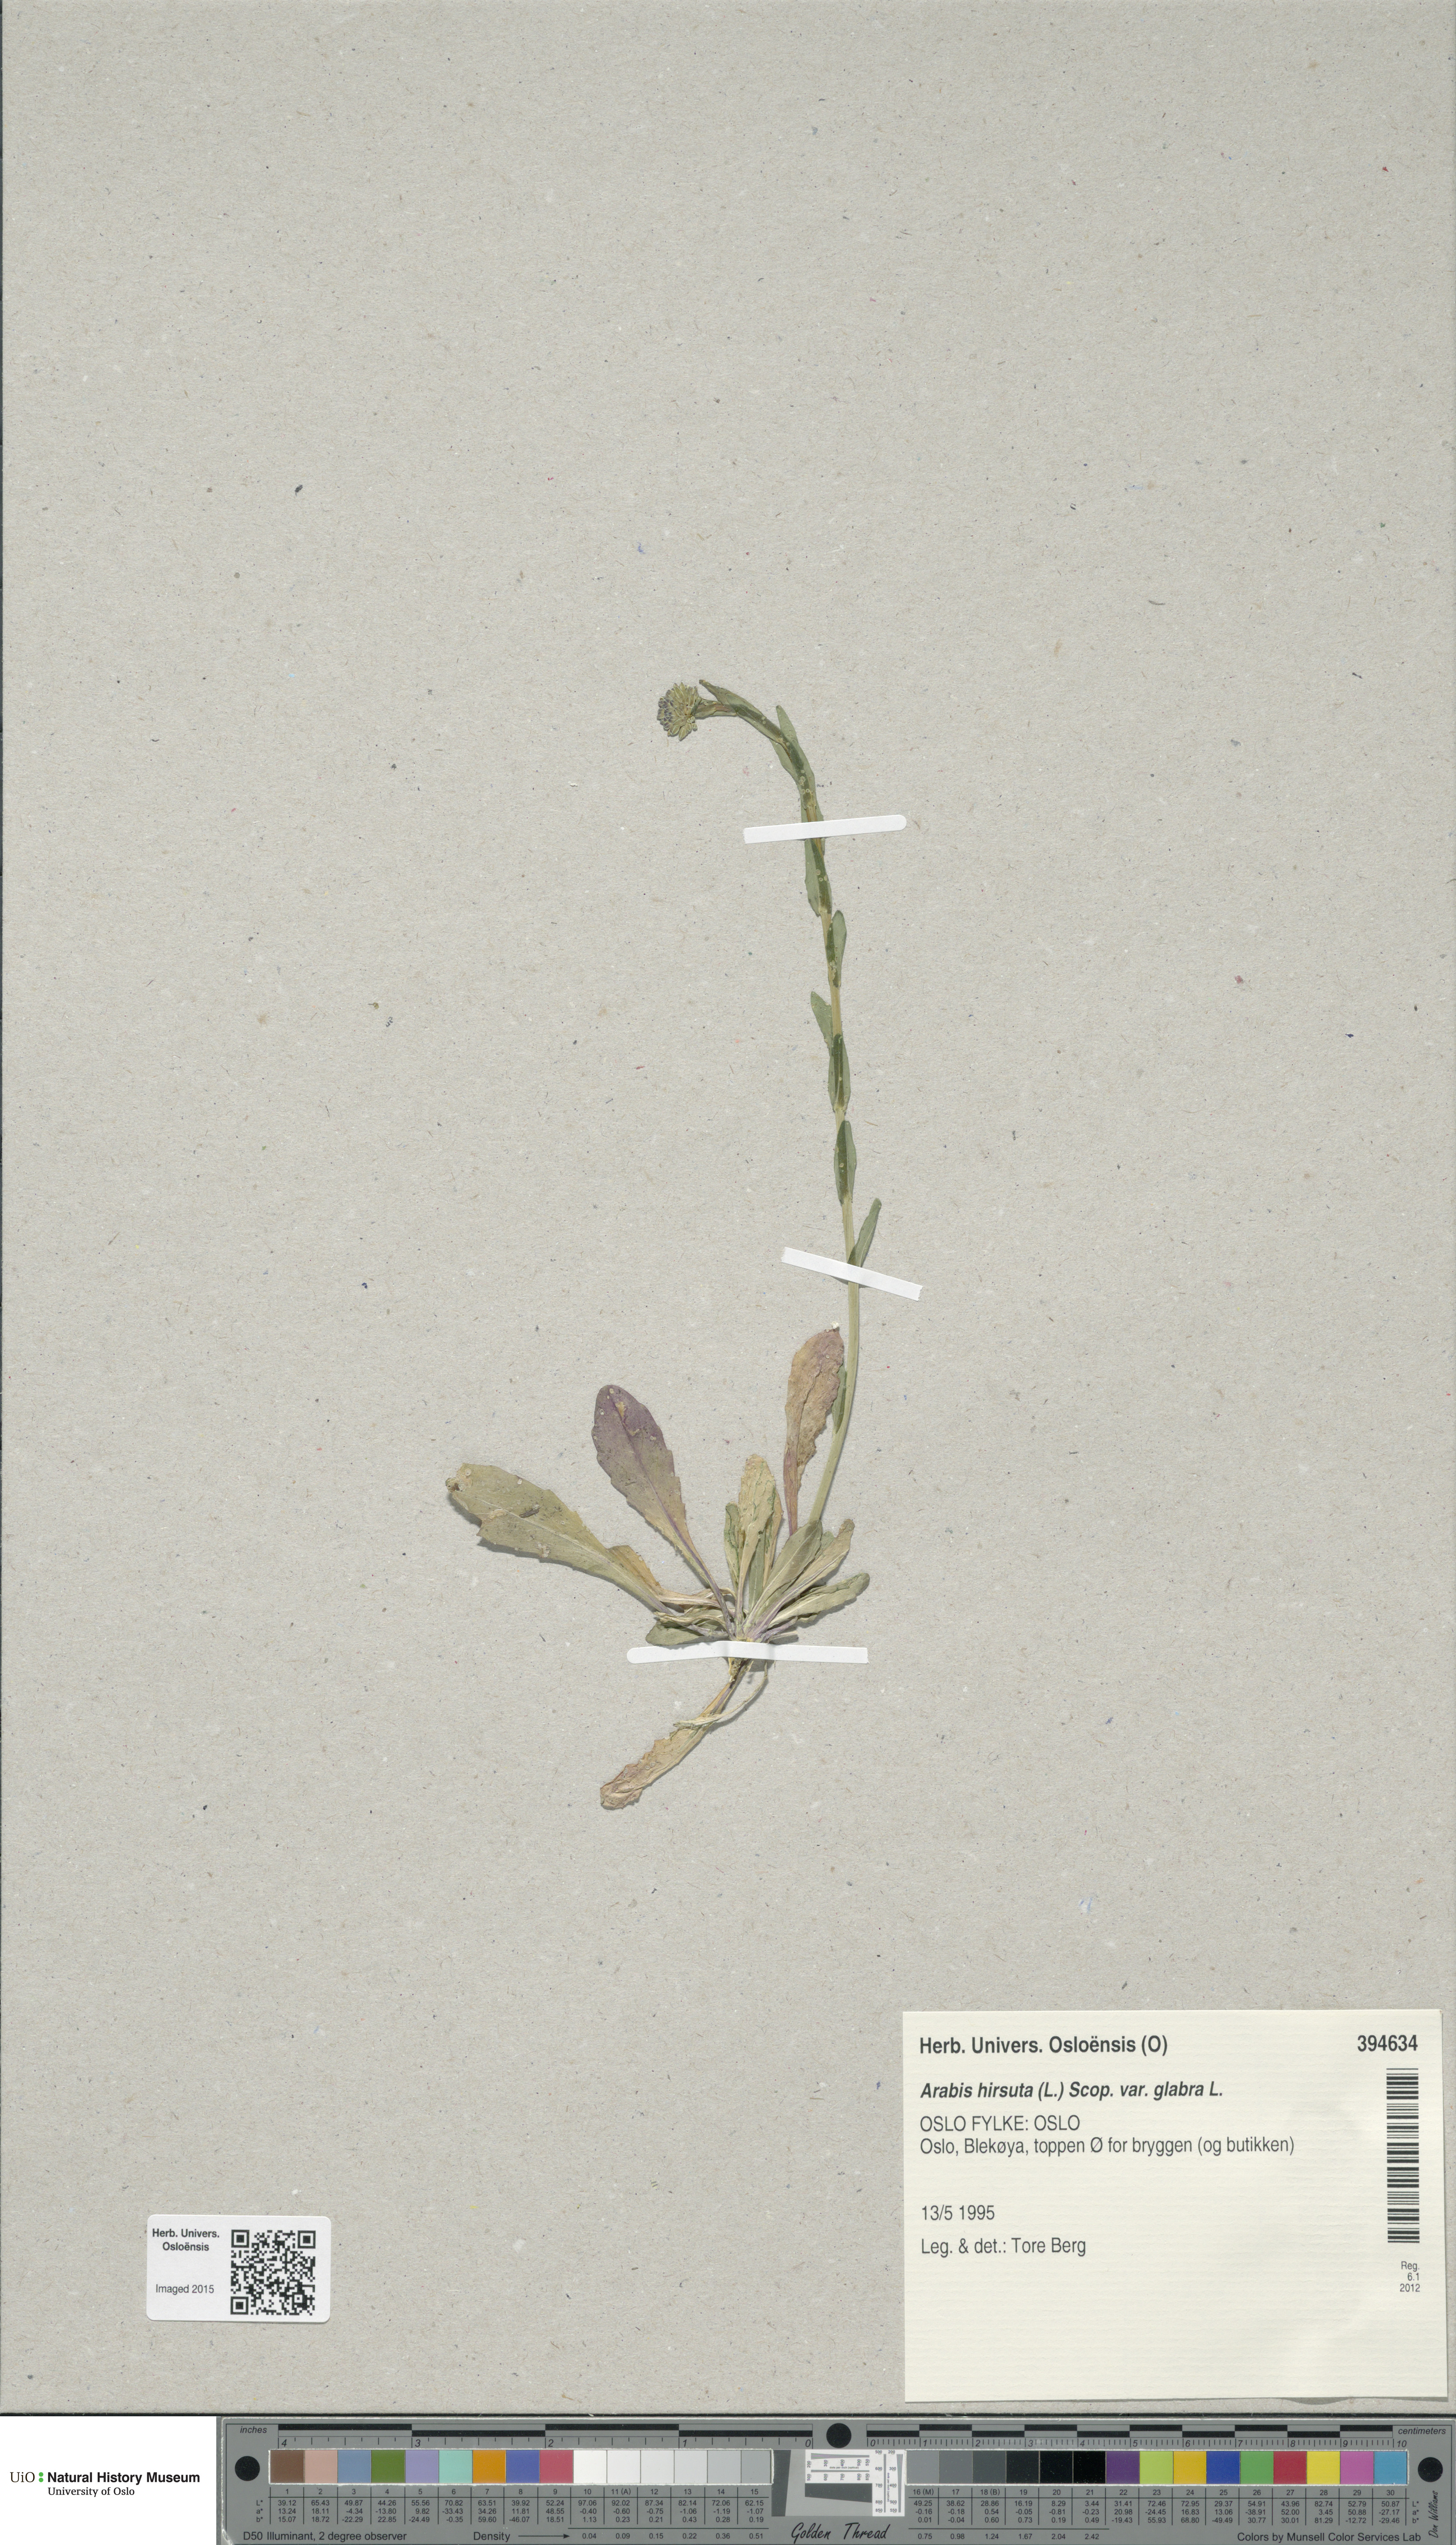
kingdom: Plantae
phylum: Tracheophyta
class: Magnoliopsida
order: Brassicales
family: Brassicaceae
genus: Arabis
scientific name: Arabis hirsuta
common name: Hairy rock-cress
